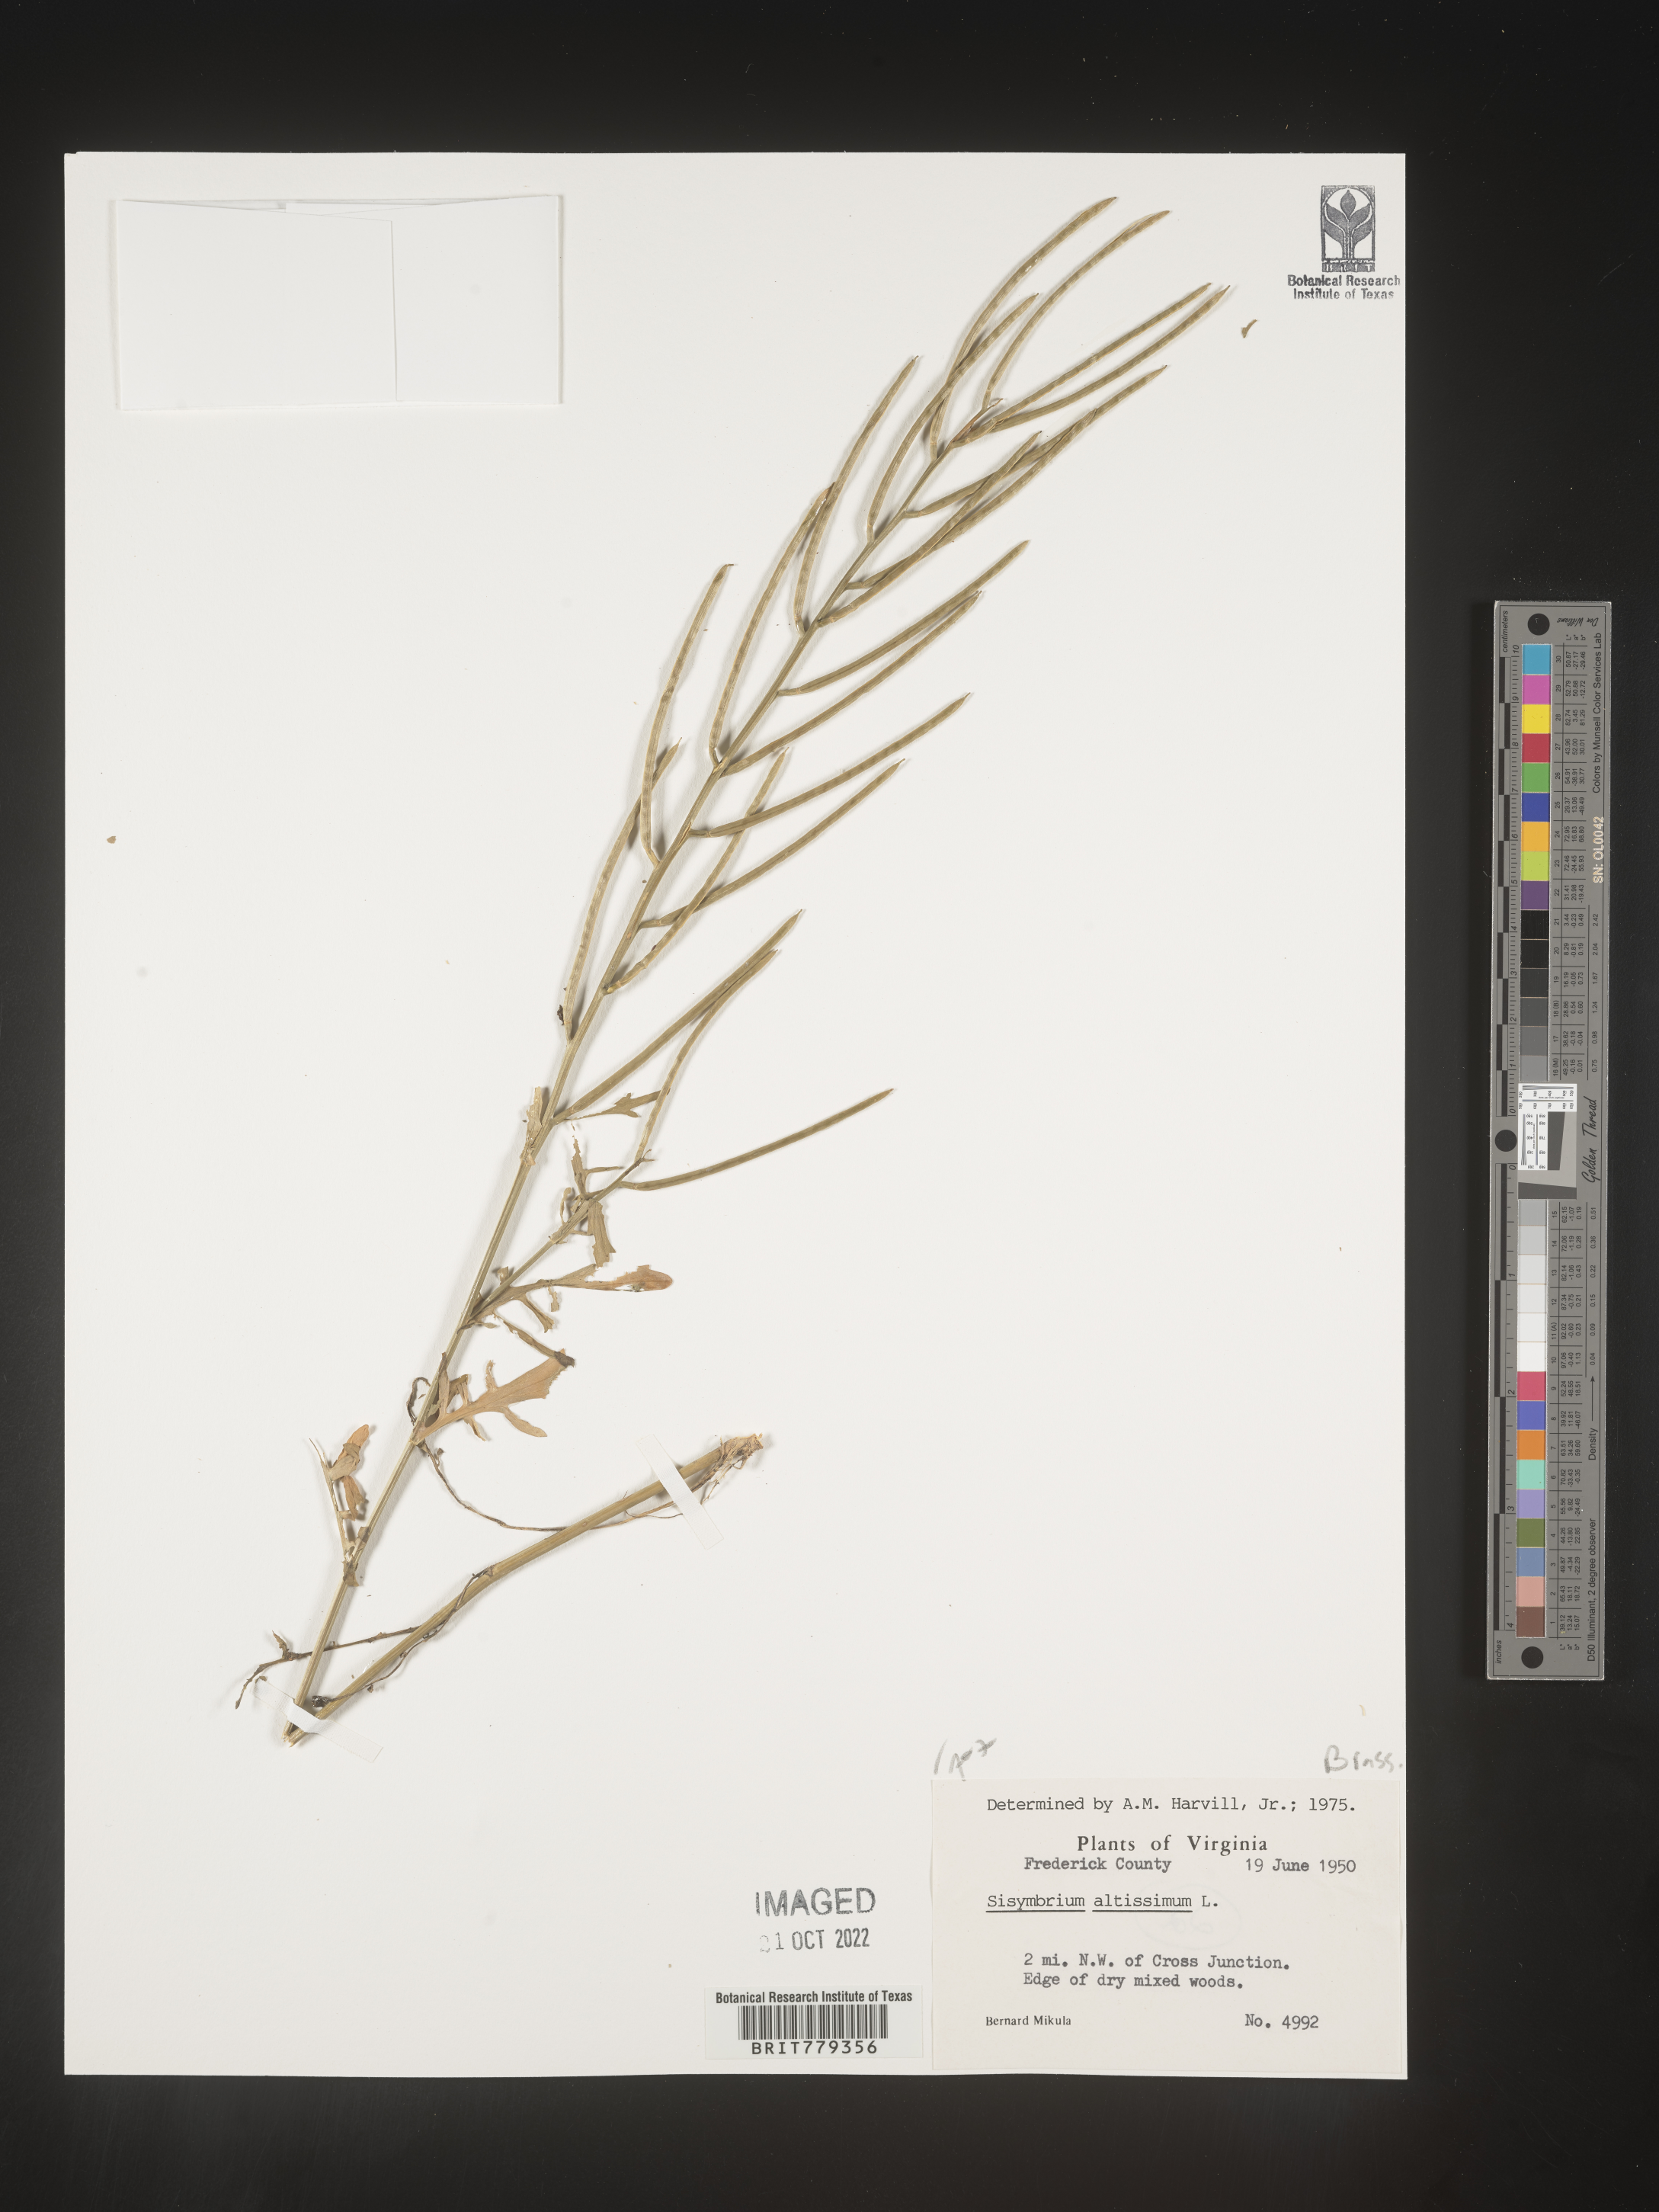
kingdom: Plantae
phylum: Tracheophyta
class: Magnoliopsida
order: Brassicales
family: Brassicaceae
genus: Sisymbrium
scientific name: Sisymbrium altissimum
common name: Tall rocket
